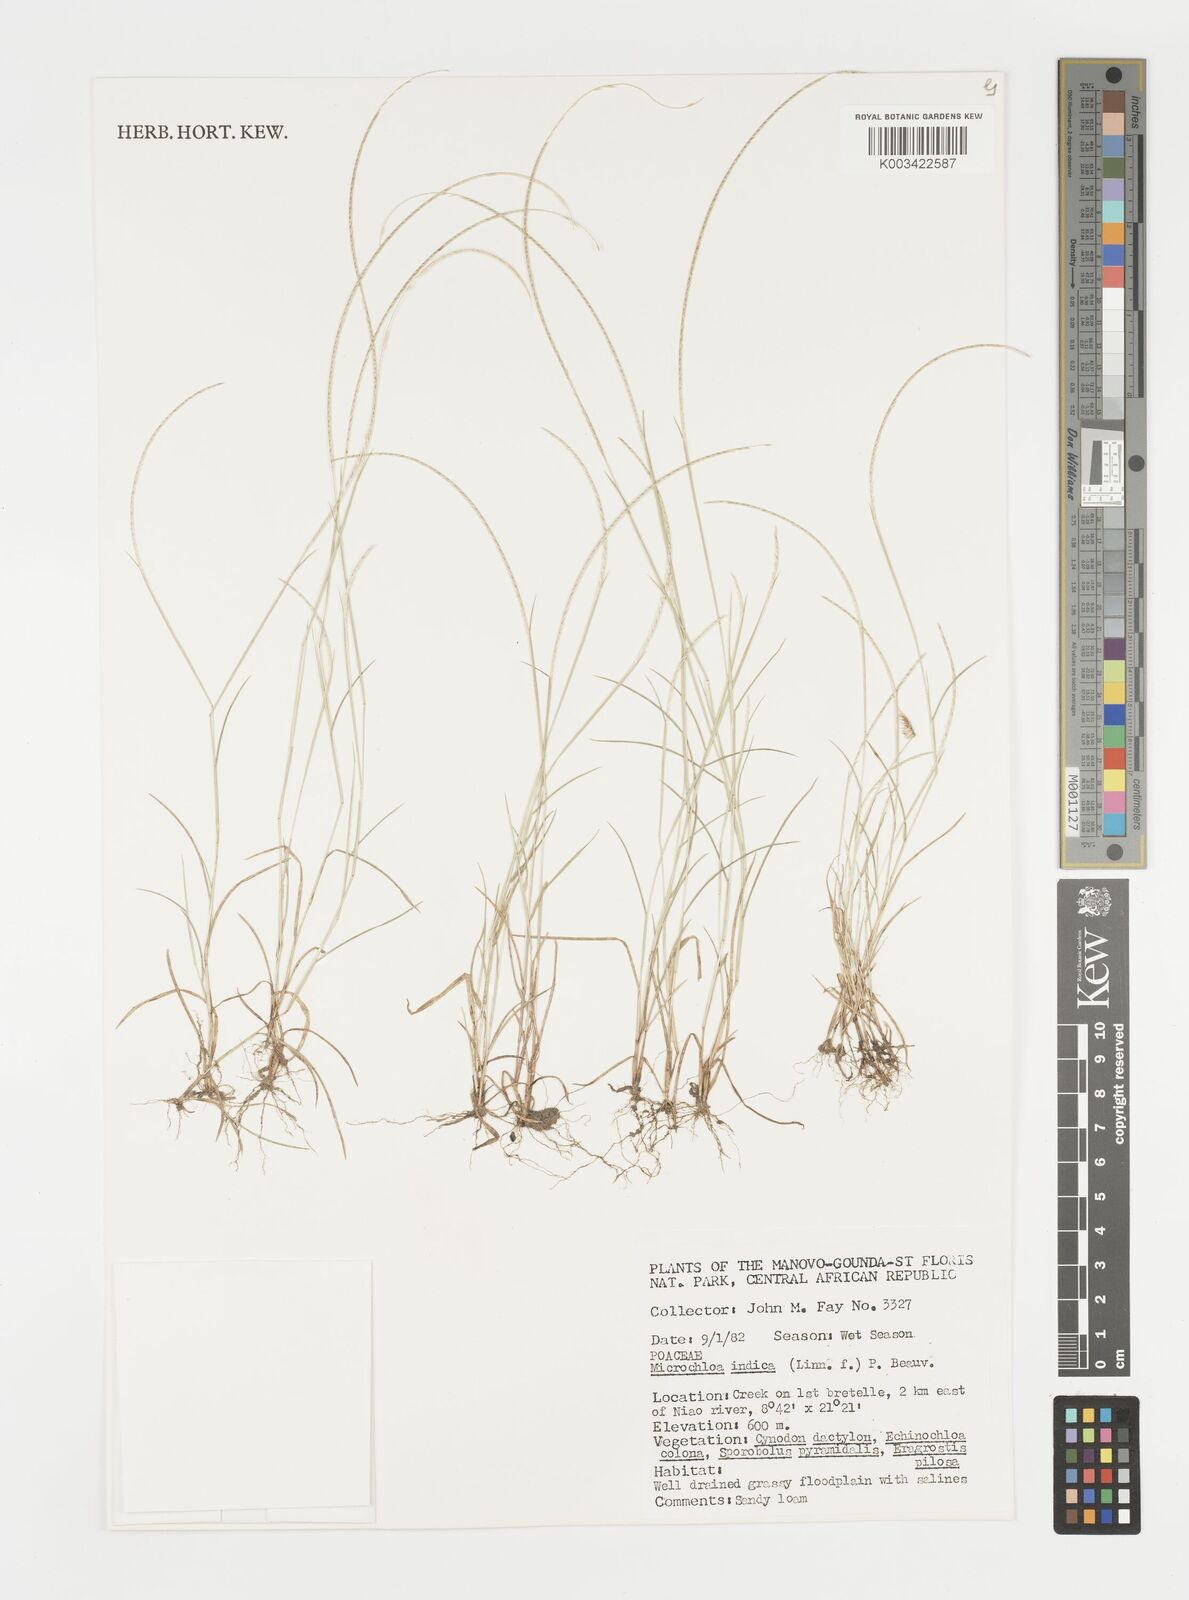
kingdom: Plantae
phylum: Tracheophyta
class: Liliopsida
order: Poales
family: Poaceae
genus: Microchloa
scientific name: Microchloa indica
